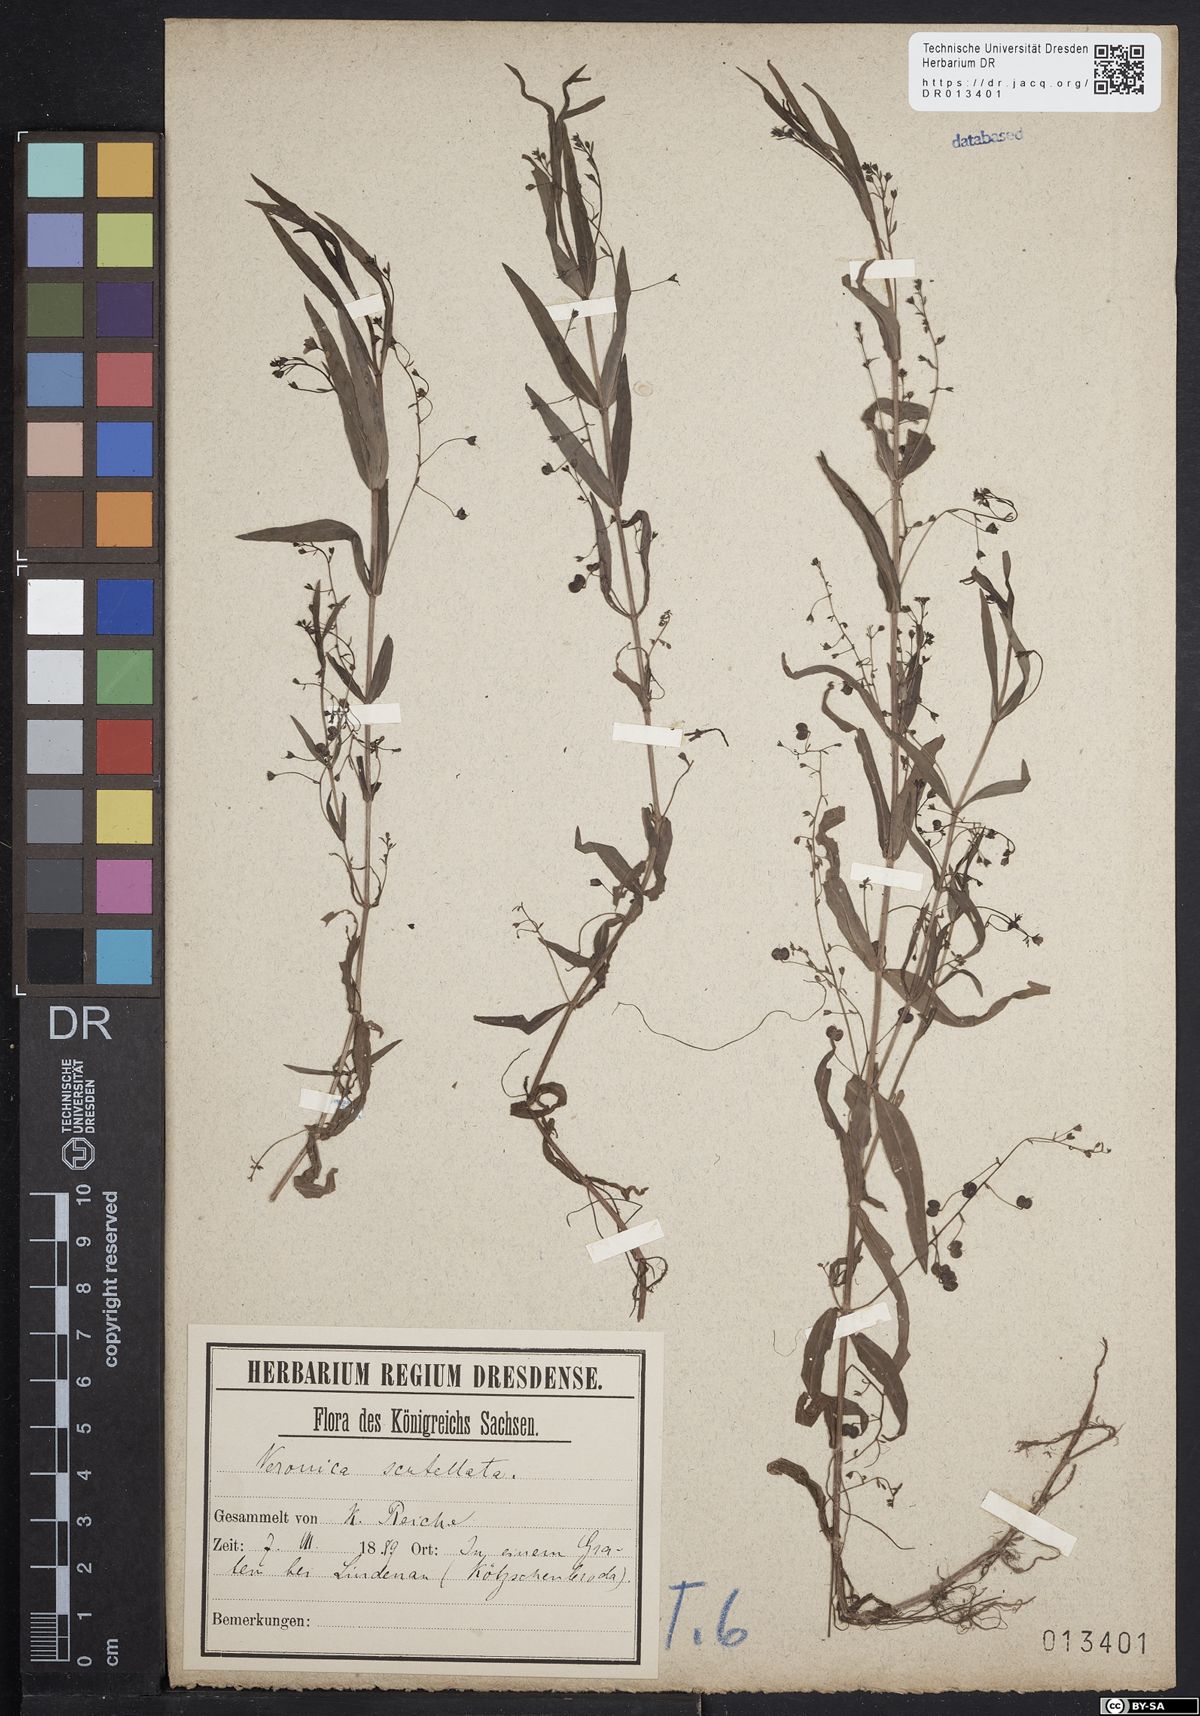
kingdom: Plantae
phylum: Tracheophyta
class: Magnoliopsida
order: Lamiales
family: Plantaginaceae
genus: Veronica
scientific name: Veronica scutellata
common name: Marsh speedwell
